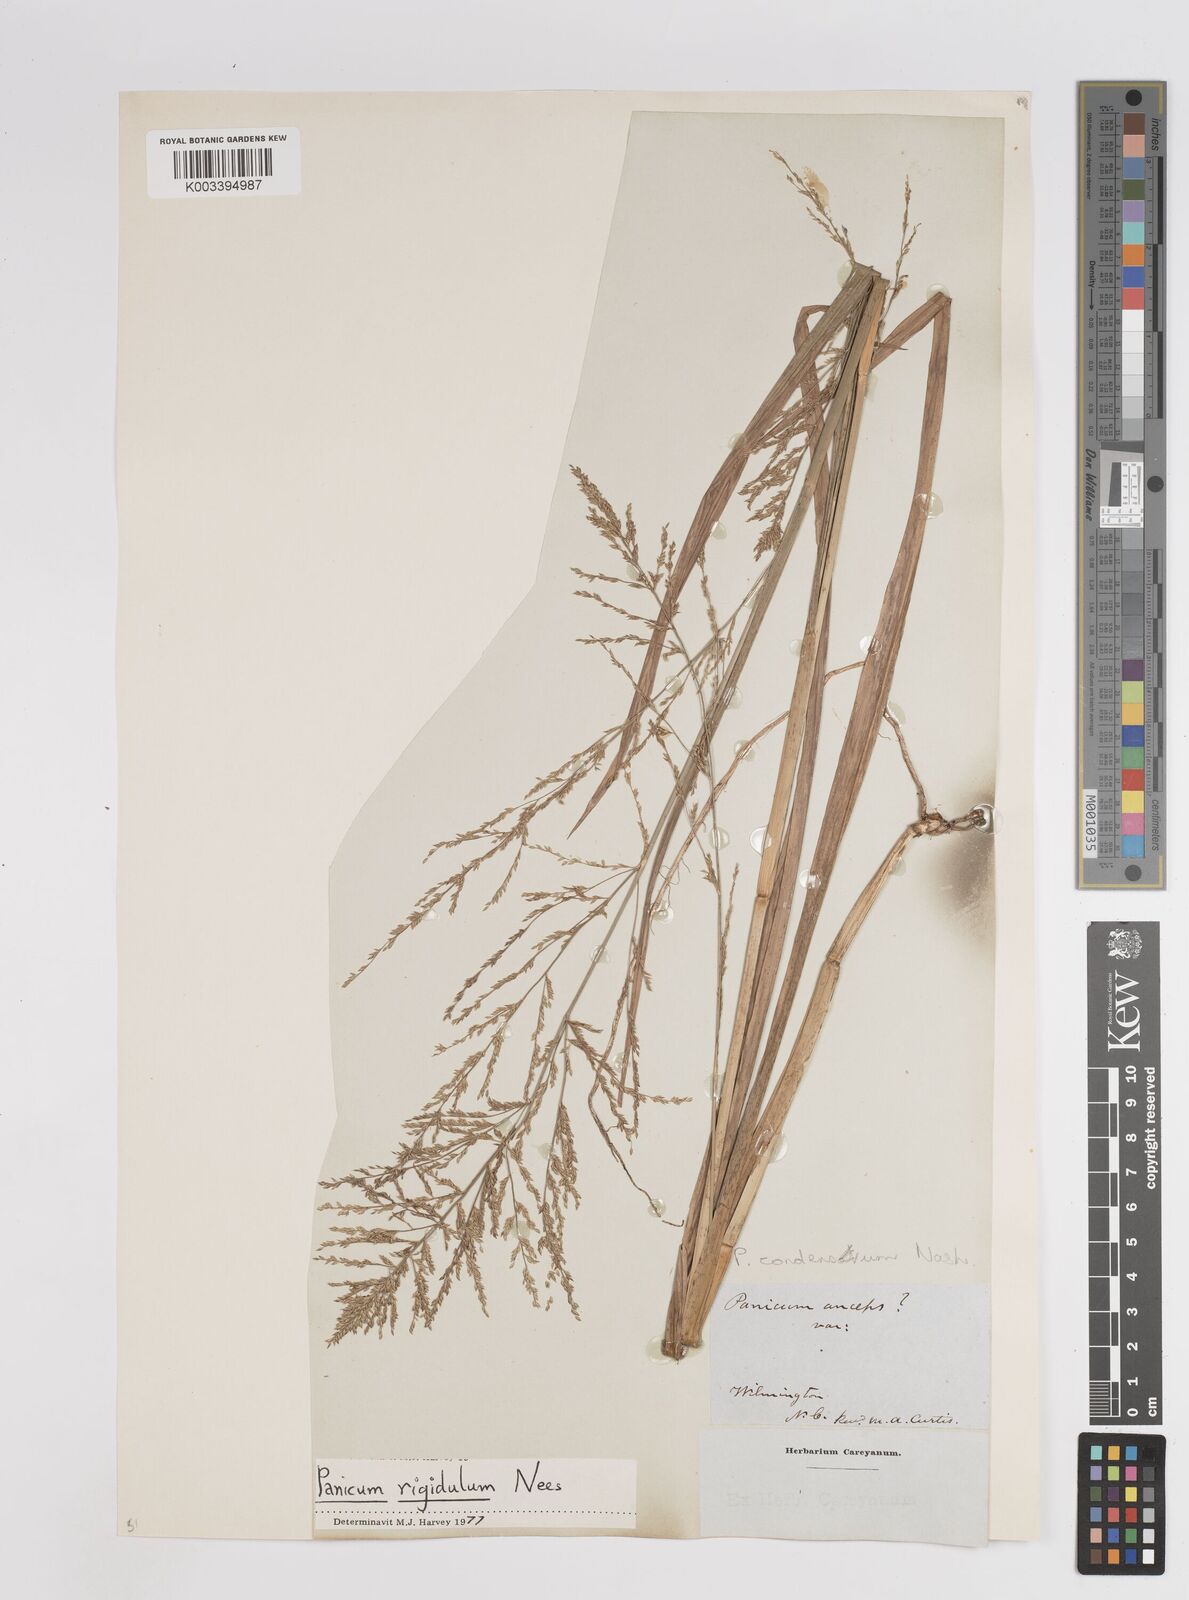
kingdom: Plantae
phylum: Tracheophyta
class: Liliopsida
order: Poales
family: Poaceae
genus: Coleataenia
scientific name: Coleataenia rigidula
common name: Redtop panicgrass
